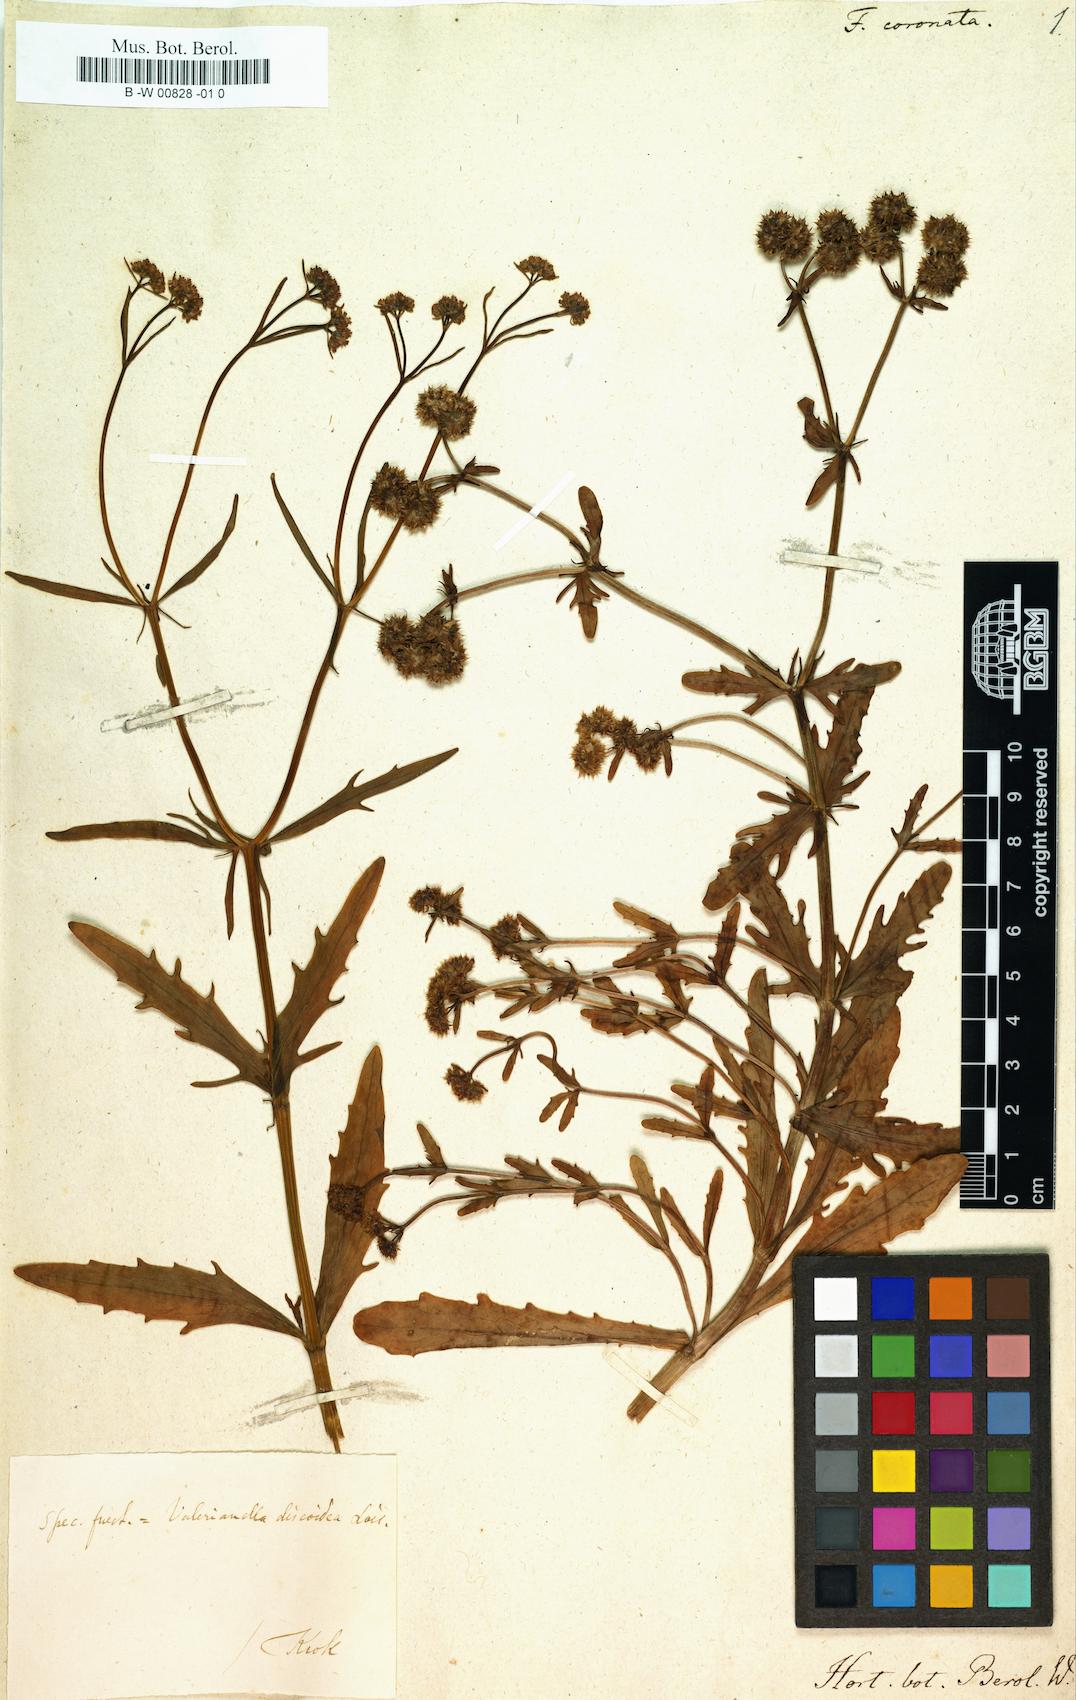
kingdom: Plantae
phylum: Tracheophyta
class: Magnoliopsida
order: Dipsacales
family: Caprifoliaceae
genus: Valerianella
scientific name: Valerianella
